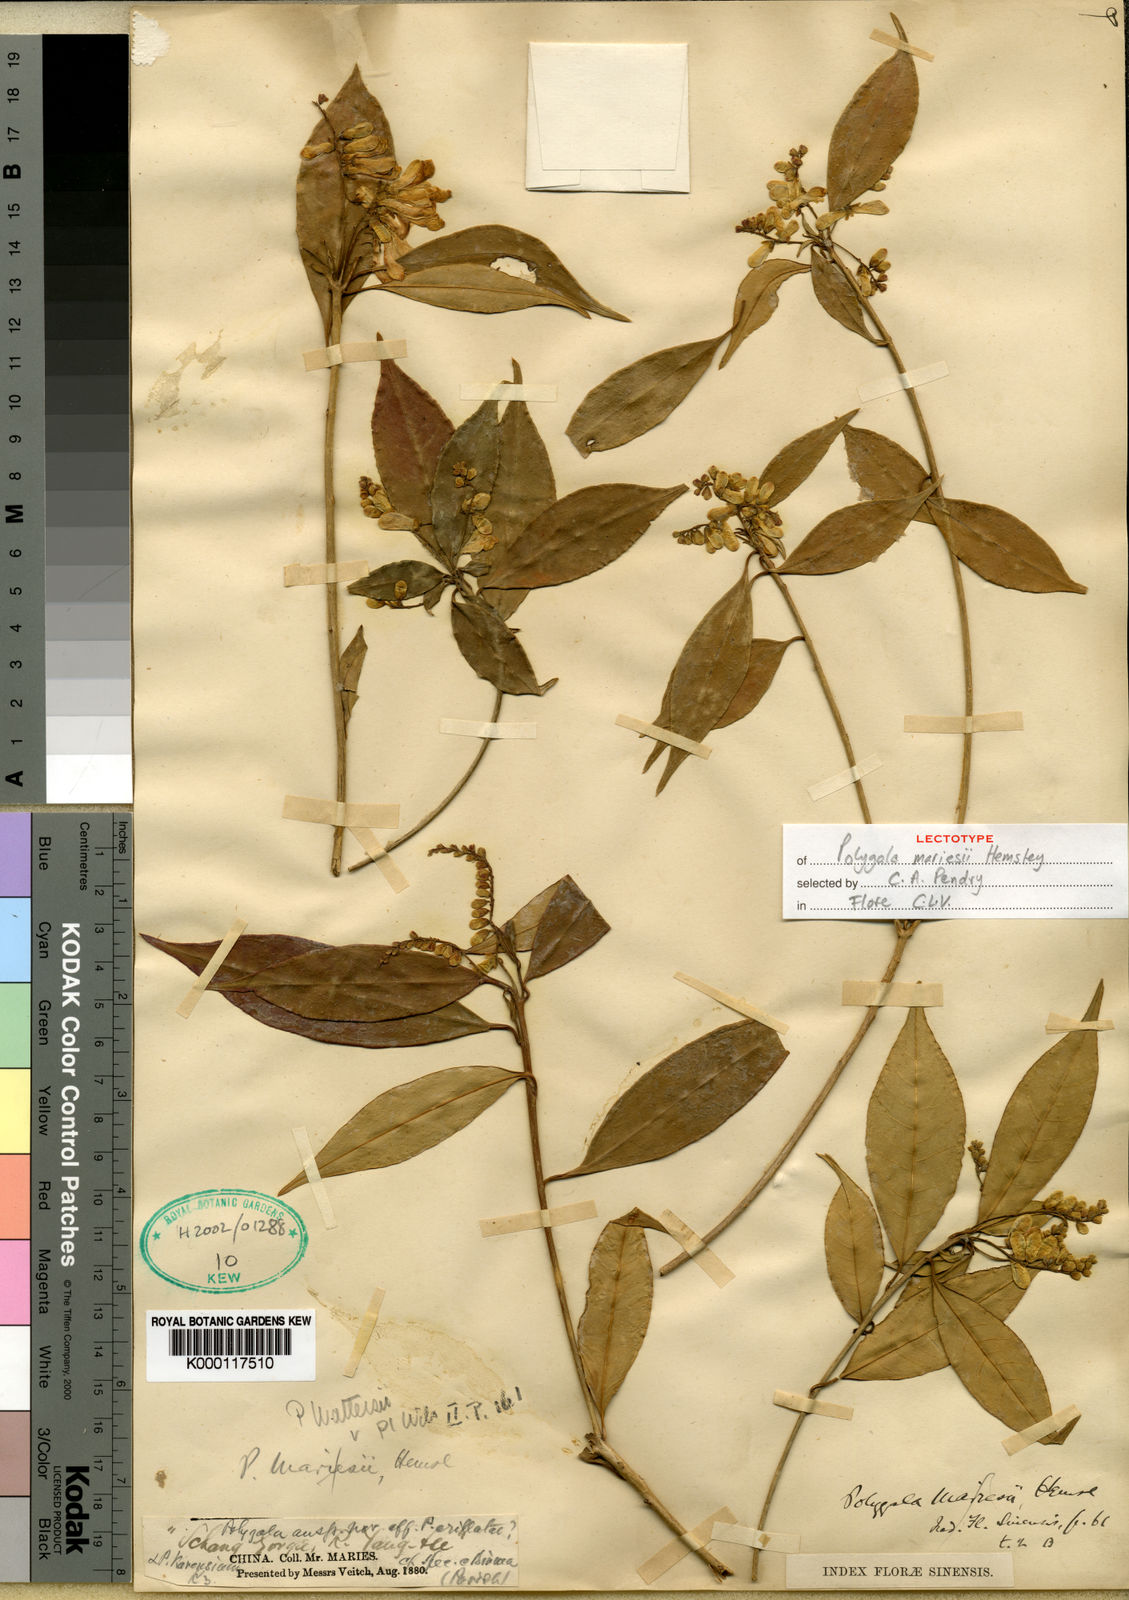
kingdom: Plantae
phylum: Tracheophyta
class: Magnoliopsida
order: Fabales
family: Polygalaceae
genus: Polygala
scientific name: Polygala wattersii
